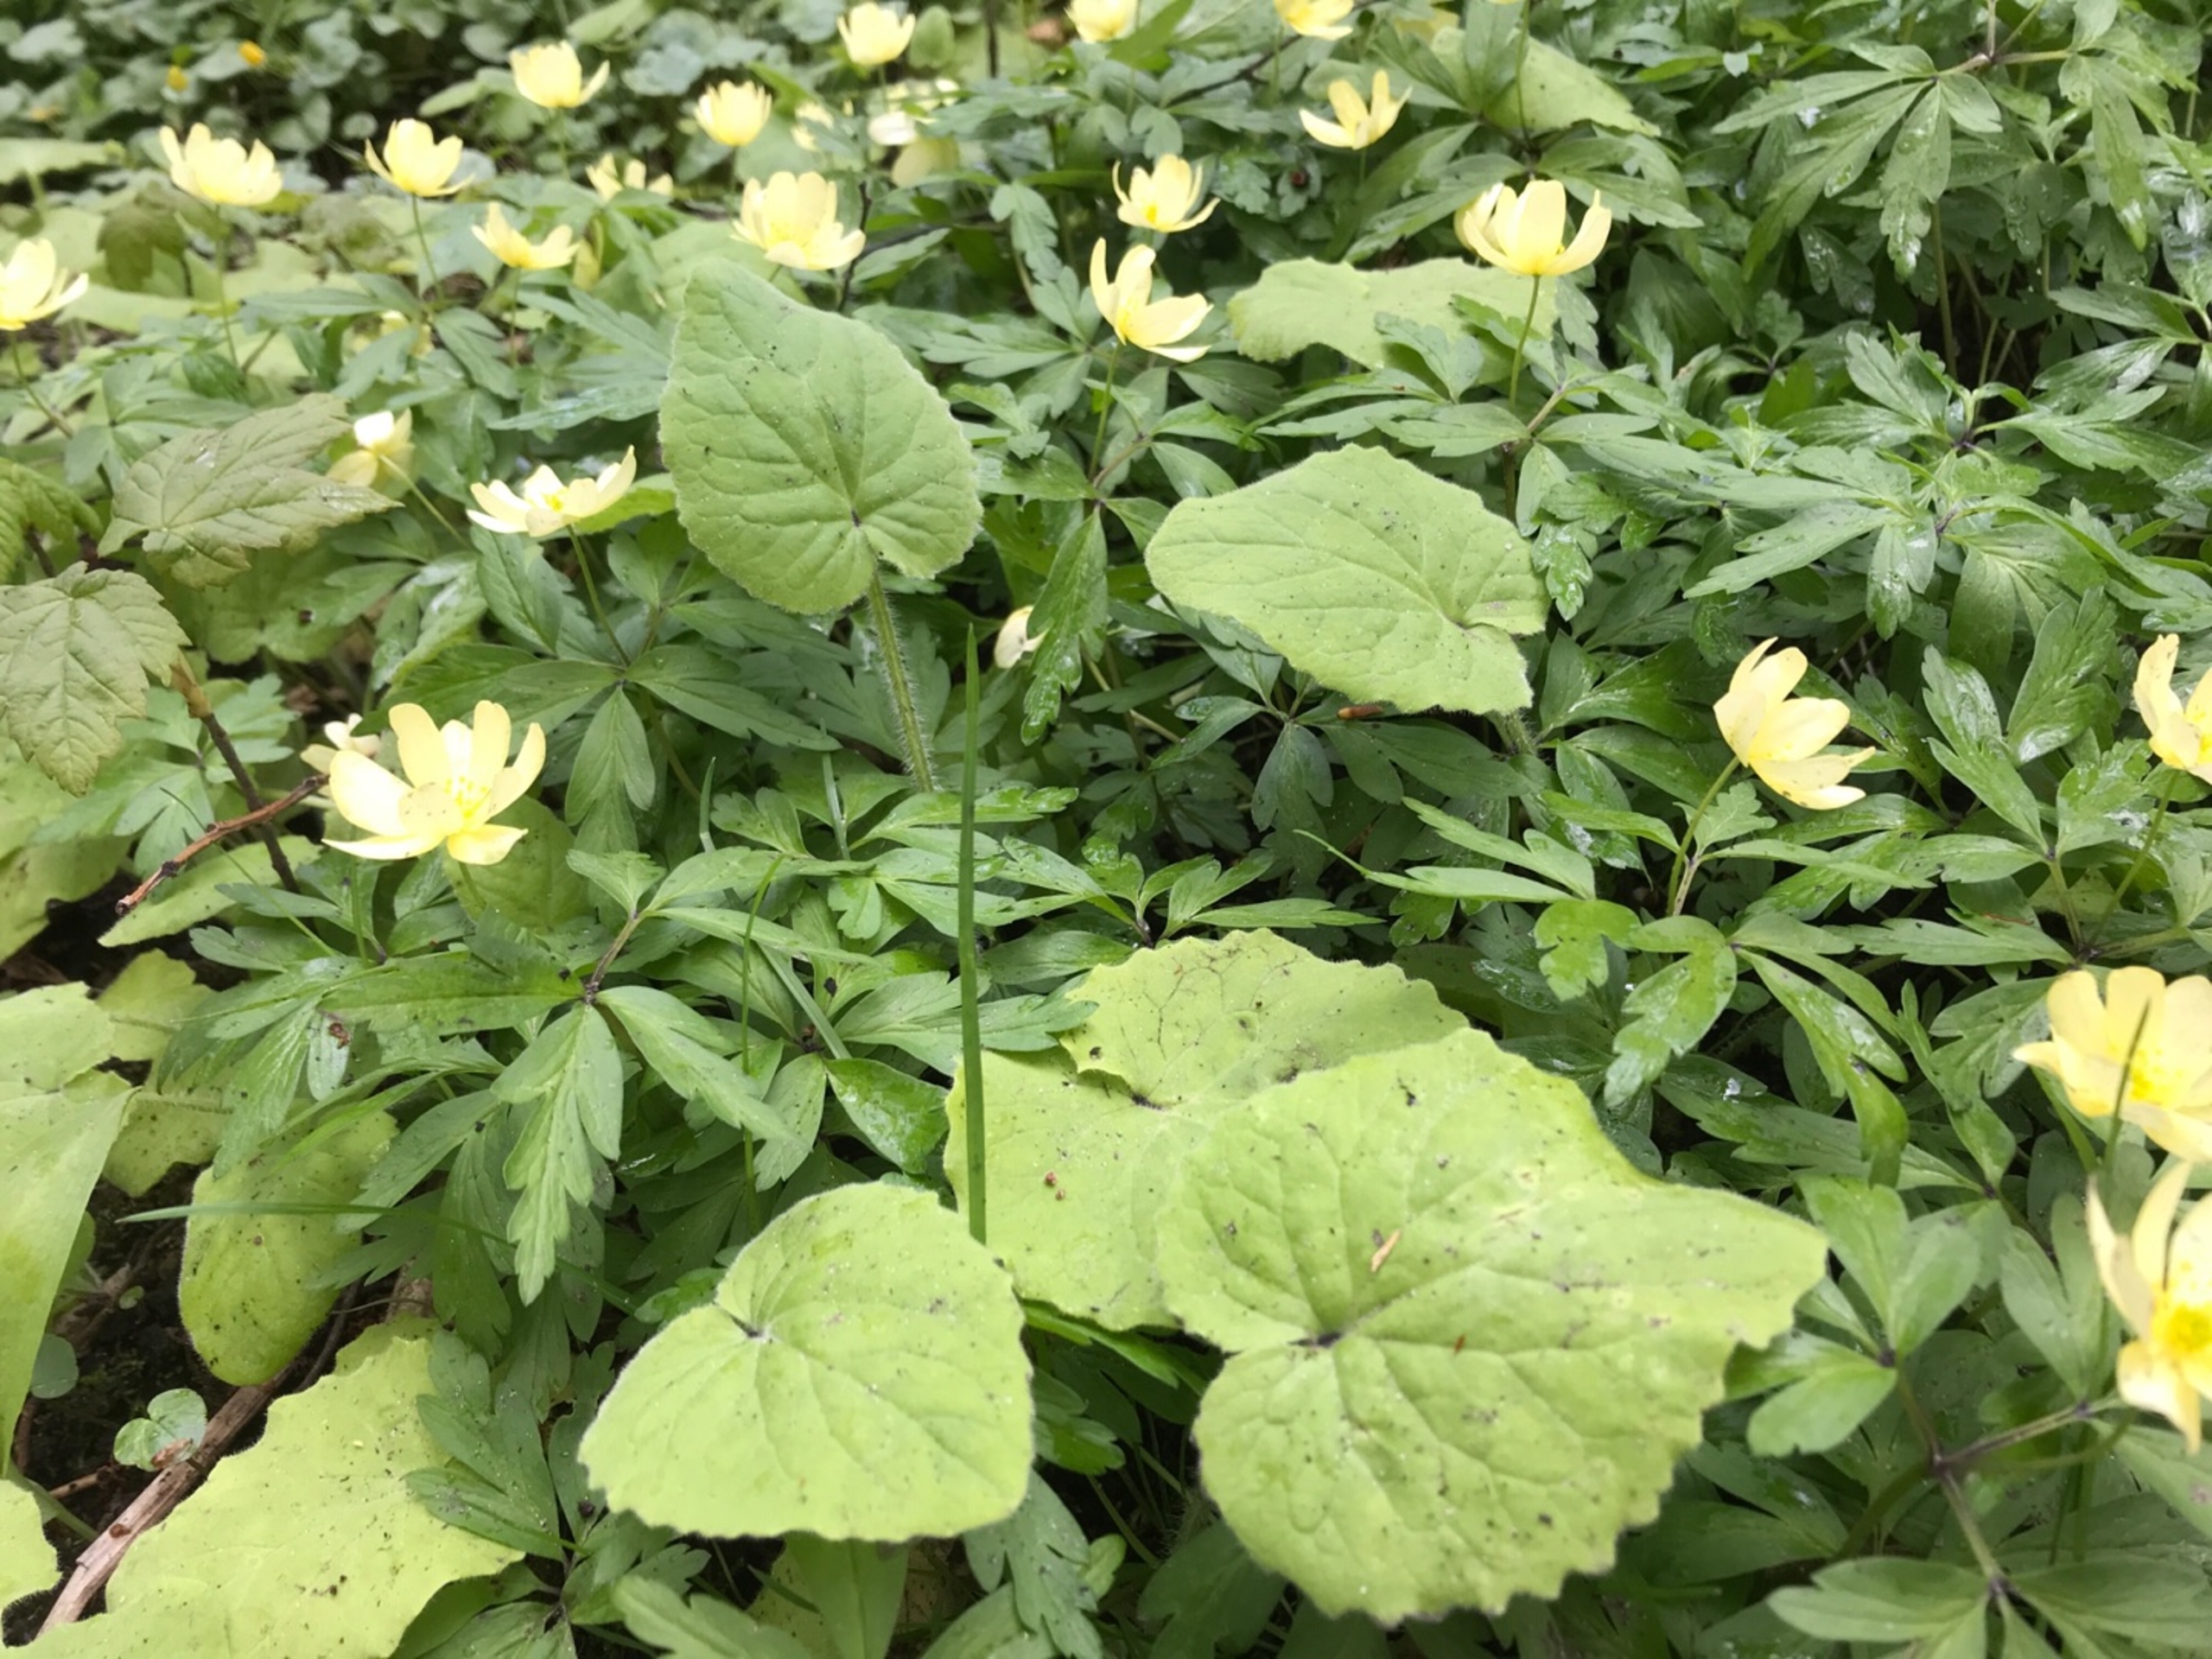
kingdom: Plantae
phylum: Tracheophyta
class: Magnoliopsida
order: Ranunculales
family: Ranunculaceae
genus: Anemone
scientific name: Anemone
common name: Svovlgul anemone
